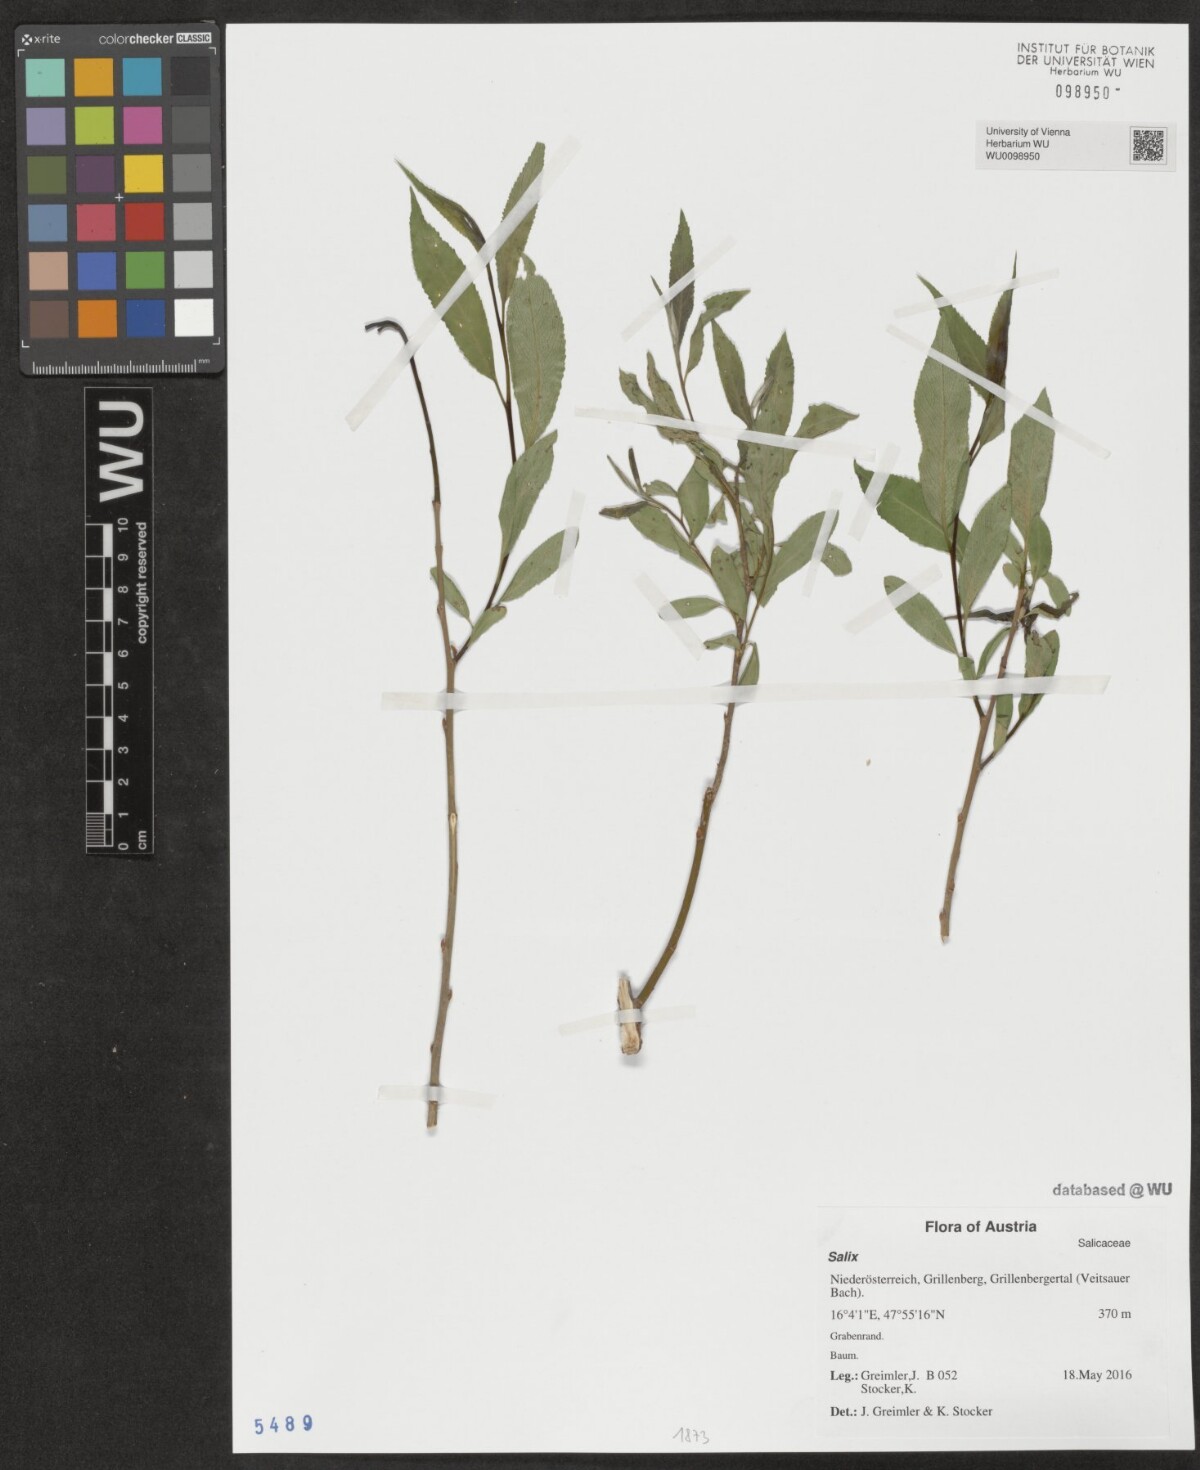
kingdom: Plantae
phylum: Tracheophyta
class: Magnoliopsida
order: Malpighiales
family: Salicaceae
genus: Salix
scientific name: Salix
